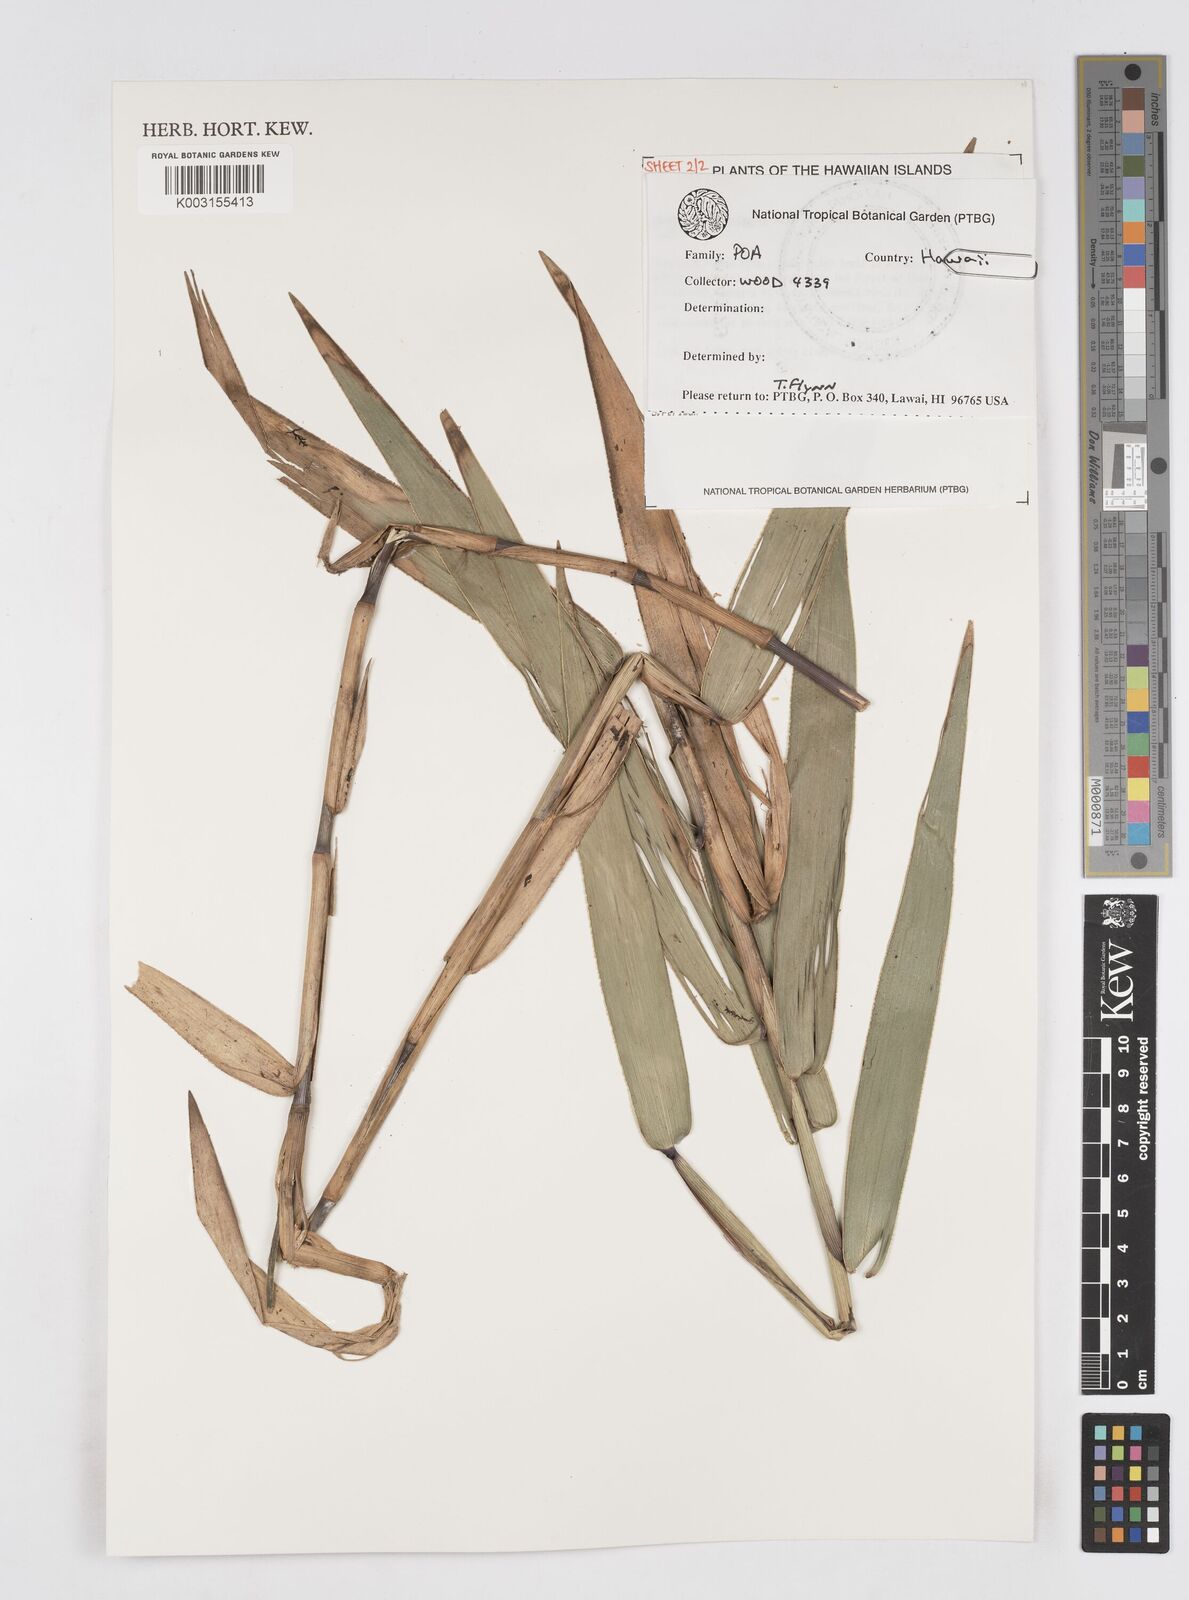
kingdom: Plantae
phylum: Tracheophyta
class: Liliopsida
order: Poales
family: Poaceae
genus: Isachne
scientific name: Isachne distichophylla
